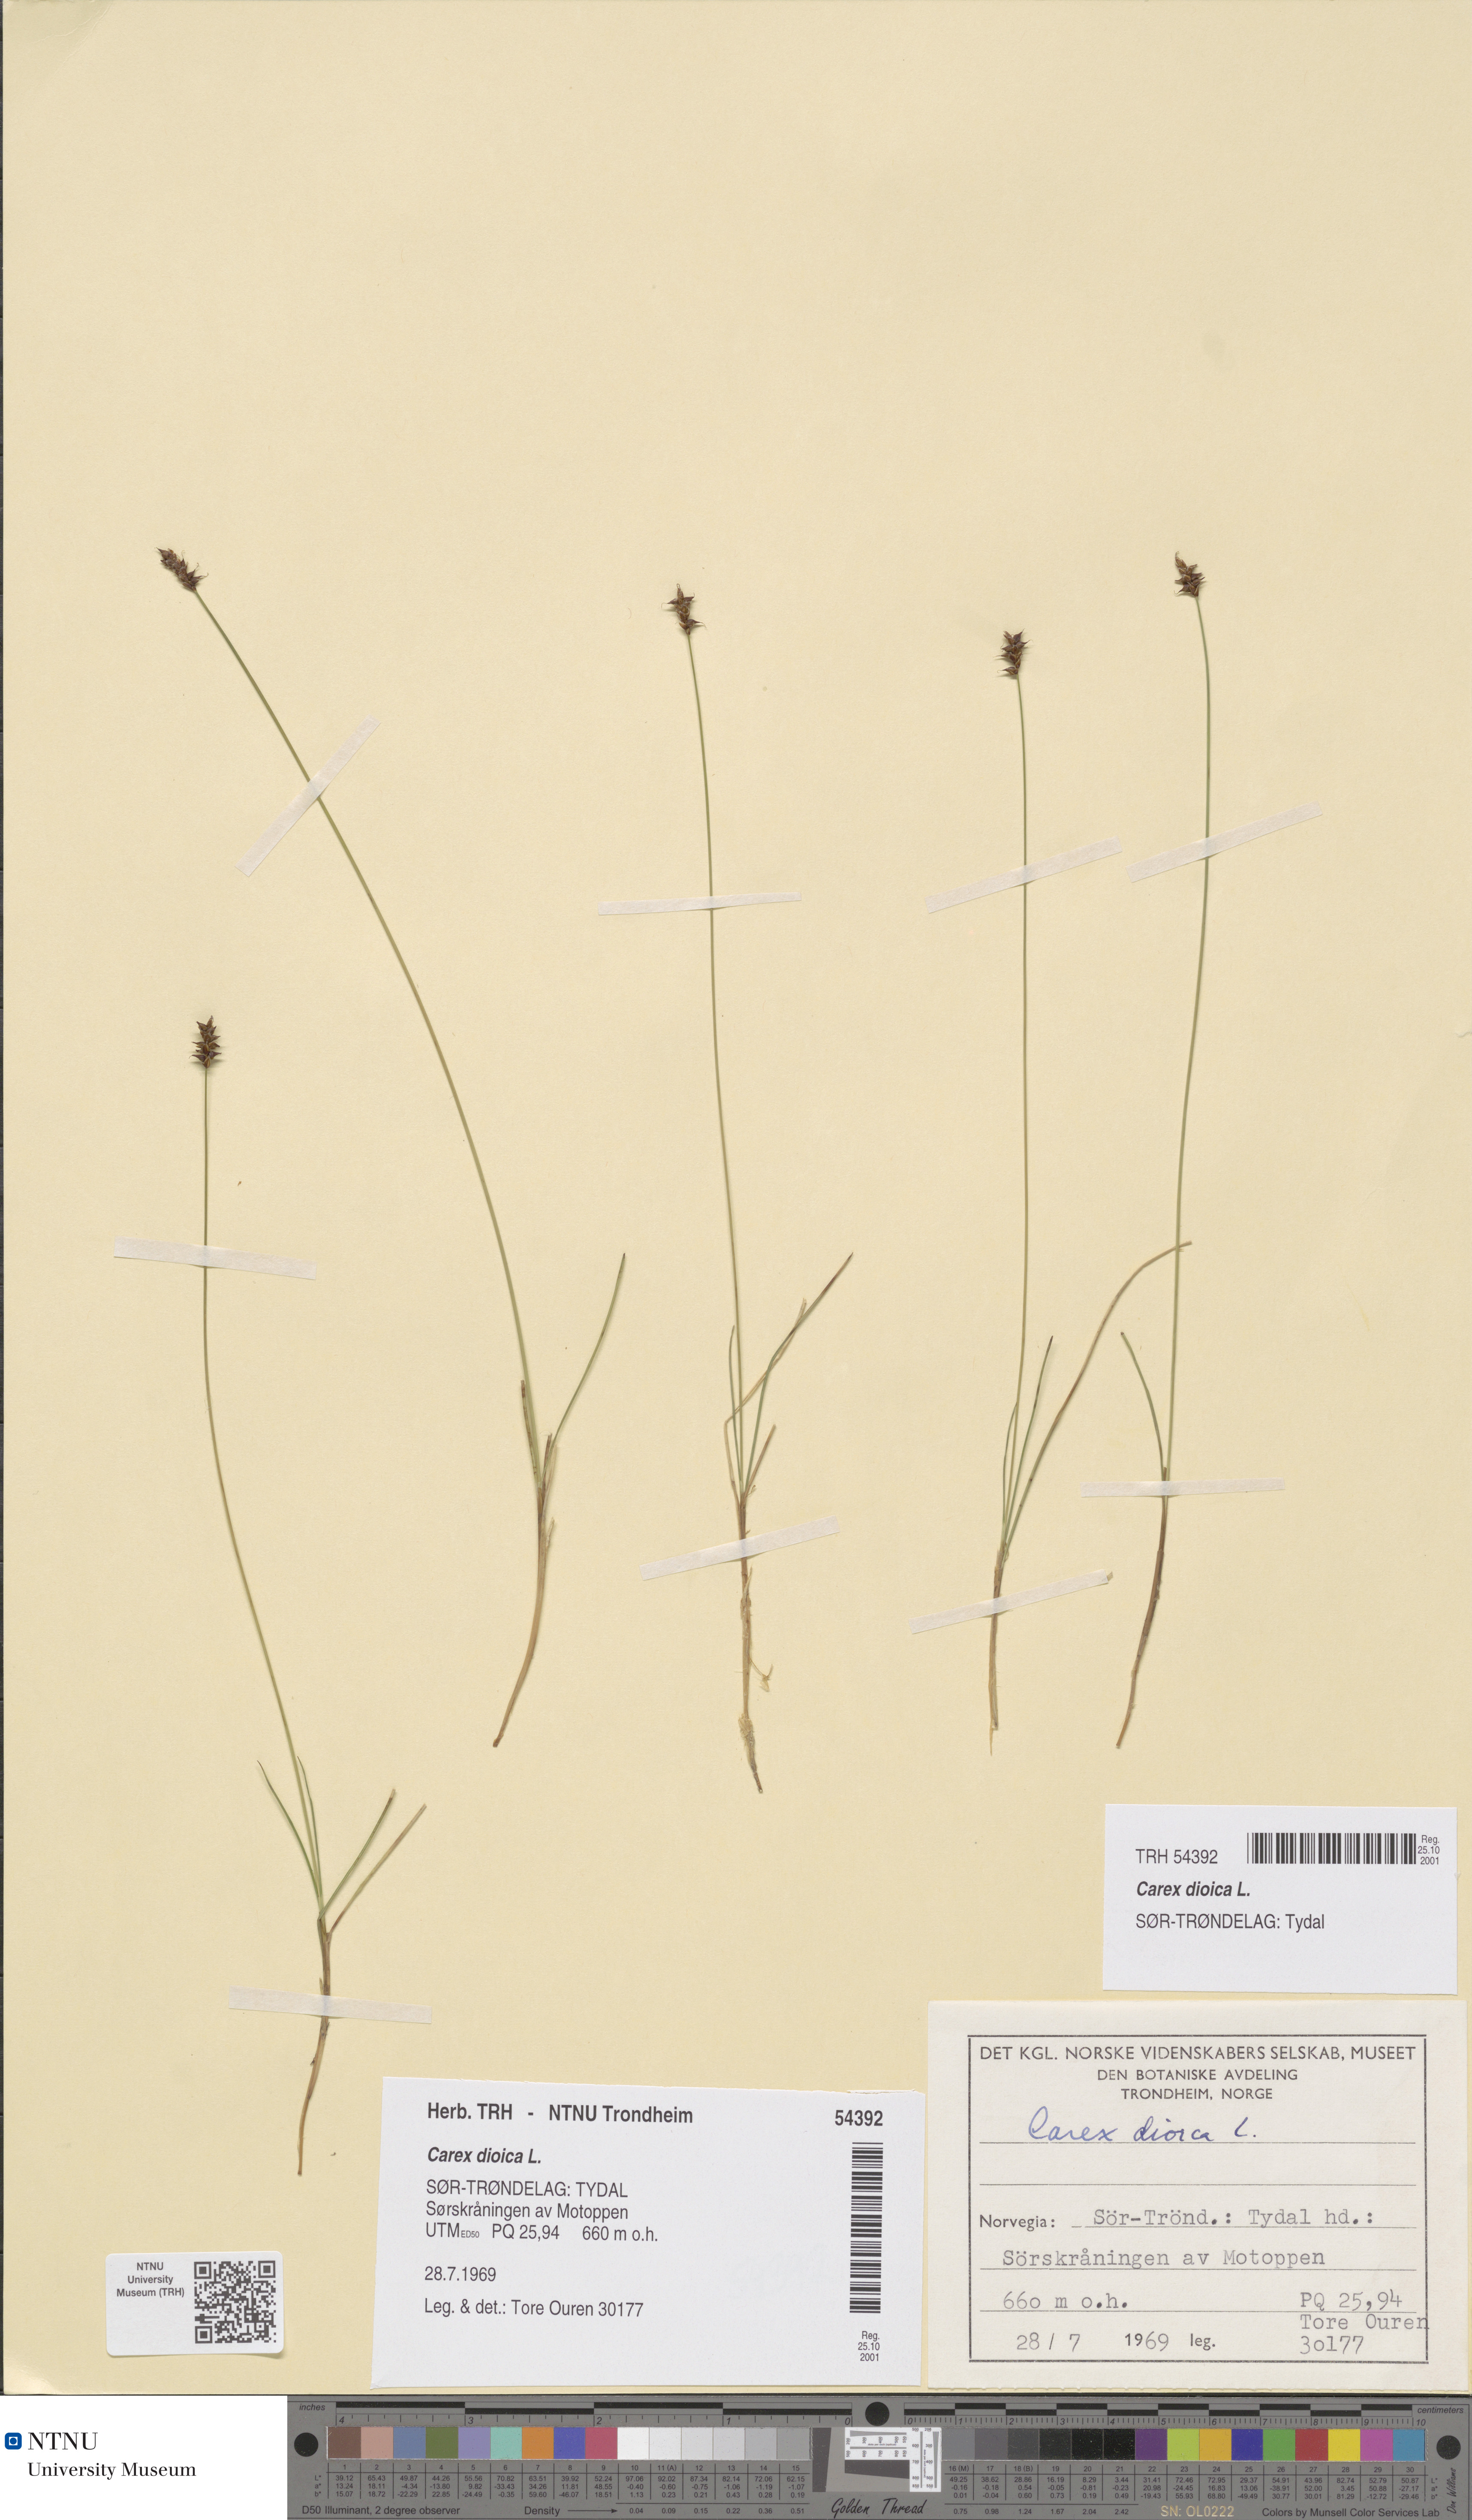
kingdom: Plantae
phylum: Tracheophyta
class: Liliopsida
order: Poales
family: Cyperaceae
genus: Carex
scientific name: Carex dioica
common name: Dioecious sedge
